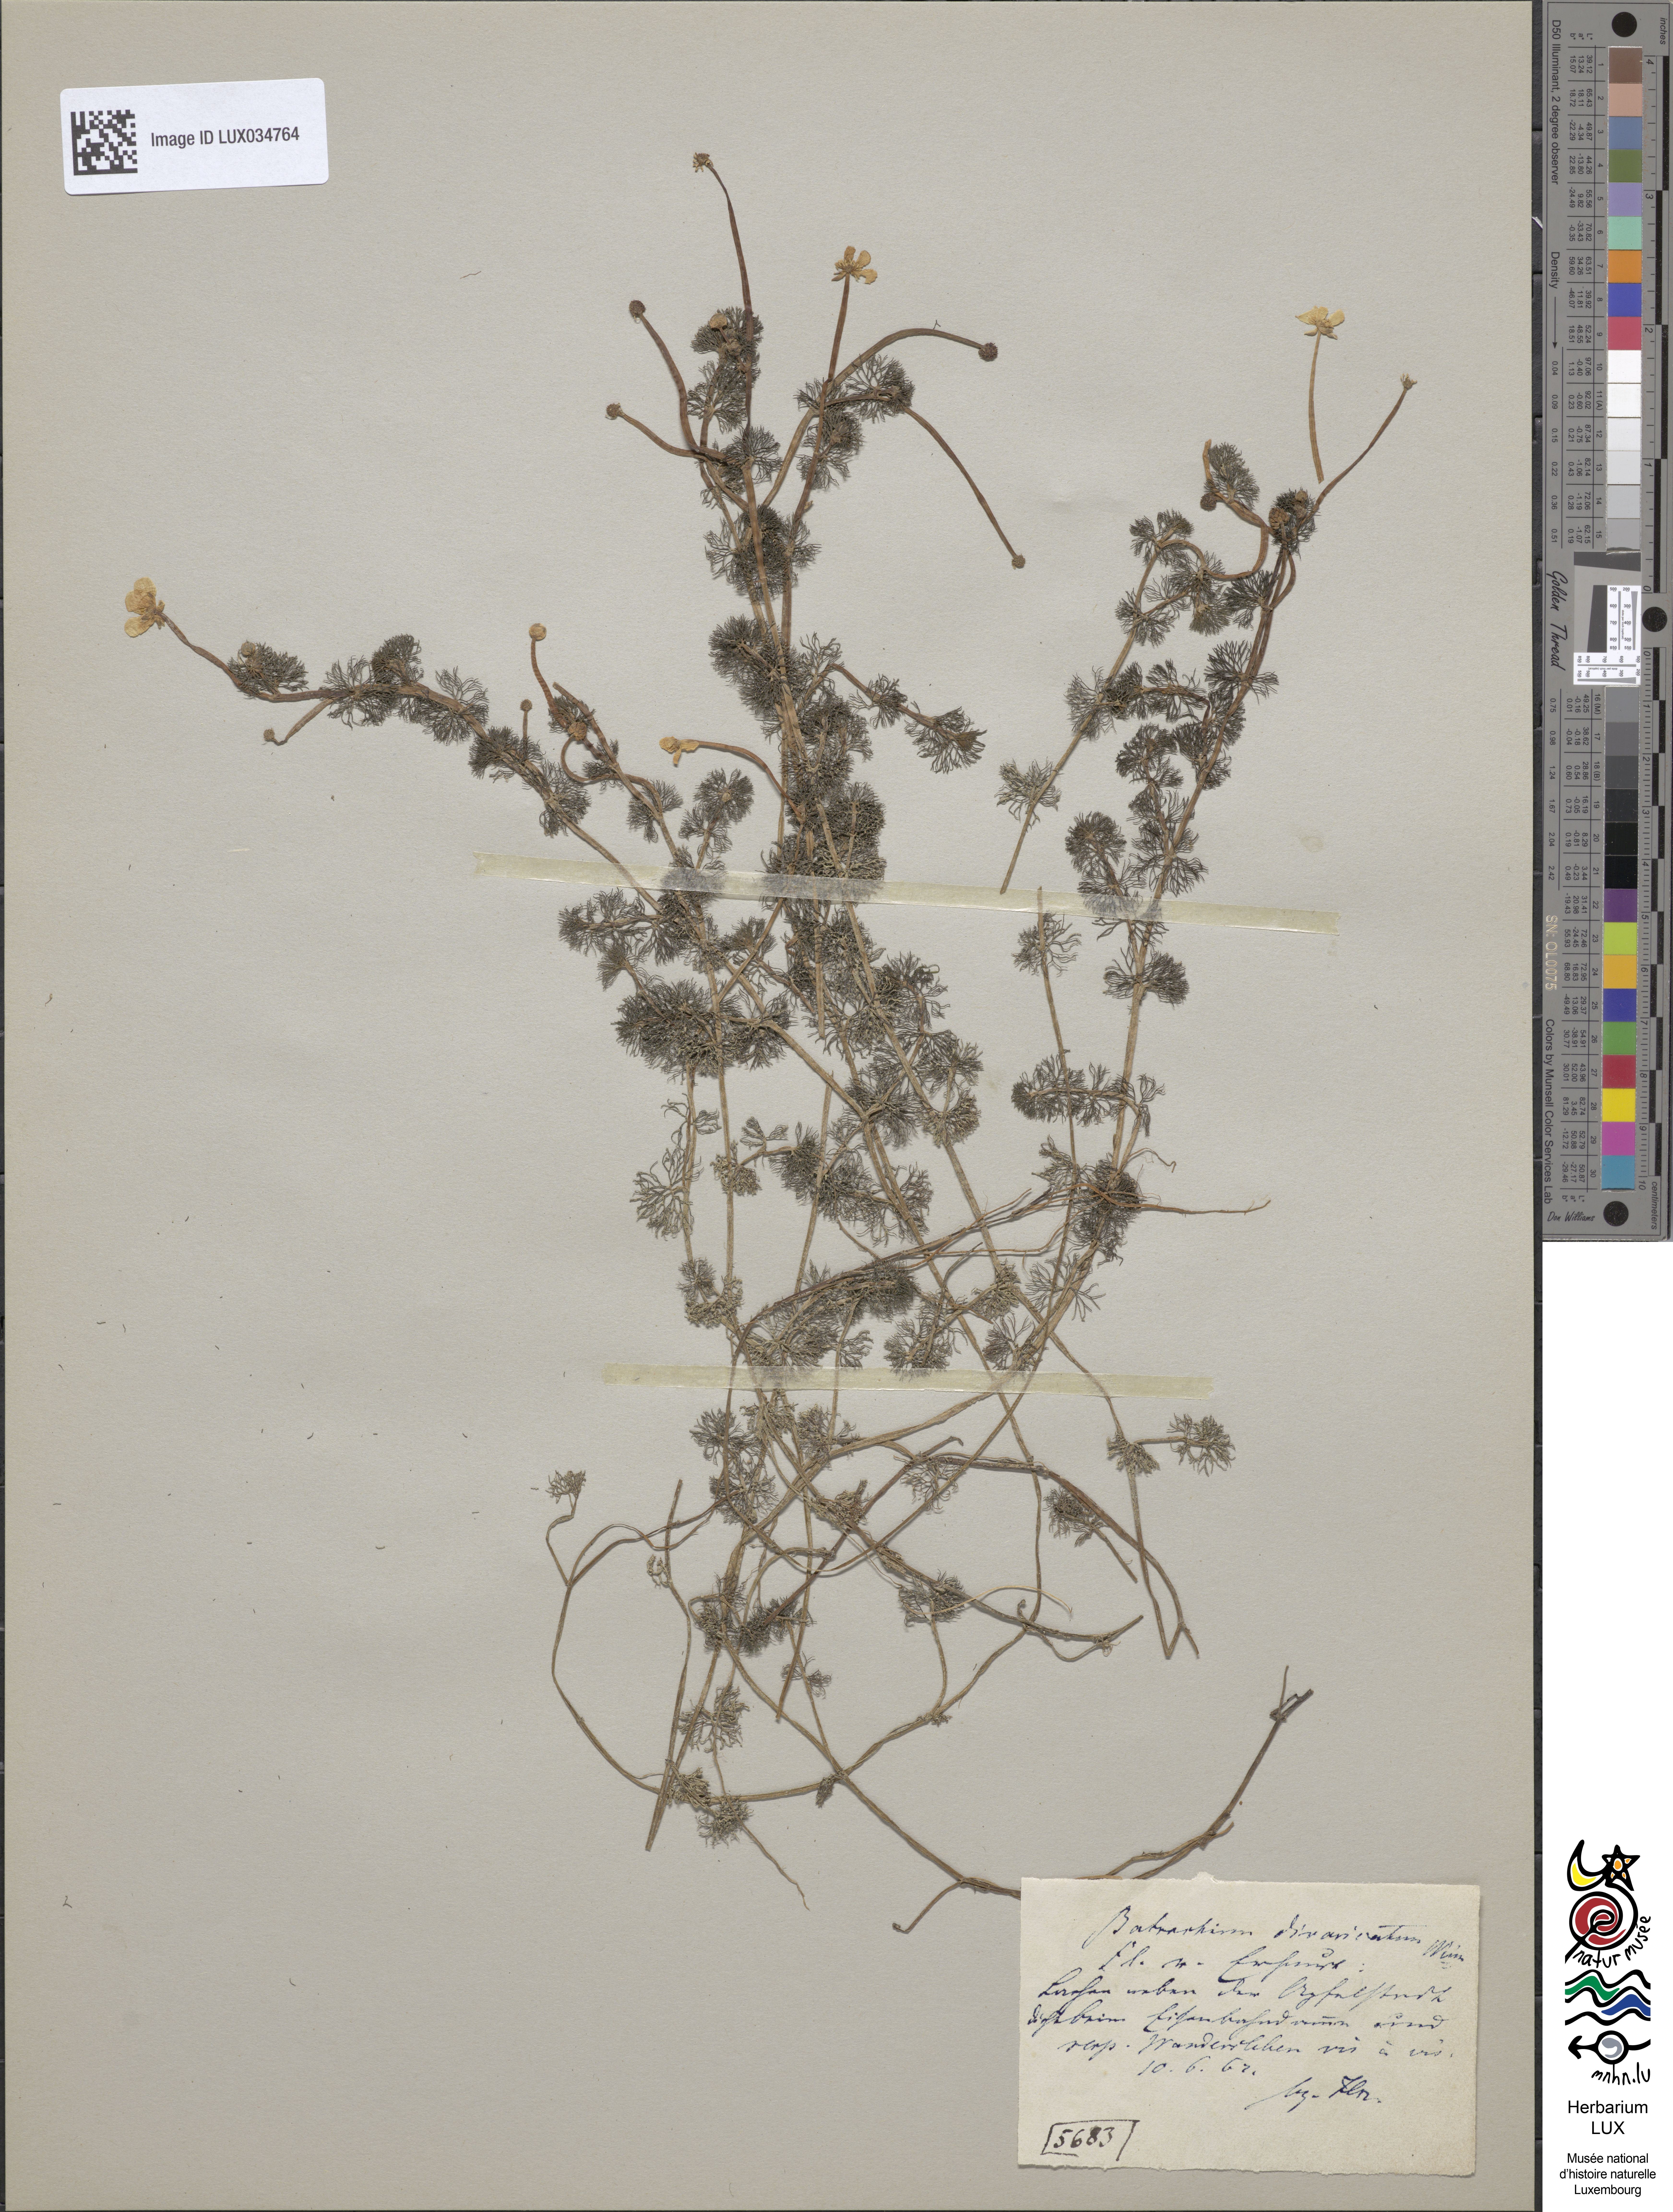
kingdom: Plantae
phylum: Tracheophyta
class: Magnoliopsida
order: Ranunculales
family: Ranunculaceae
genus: Ranunculus
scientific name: Ranunculus circinatus
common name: Fan-leaved water-crowfoot
